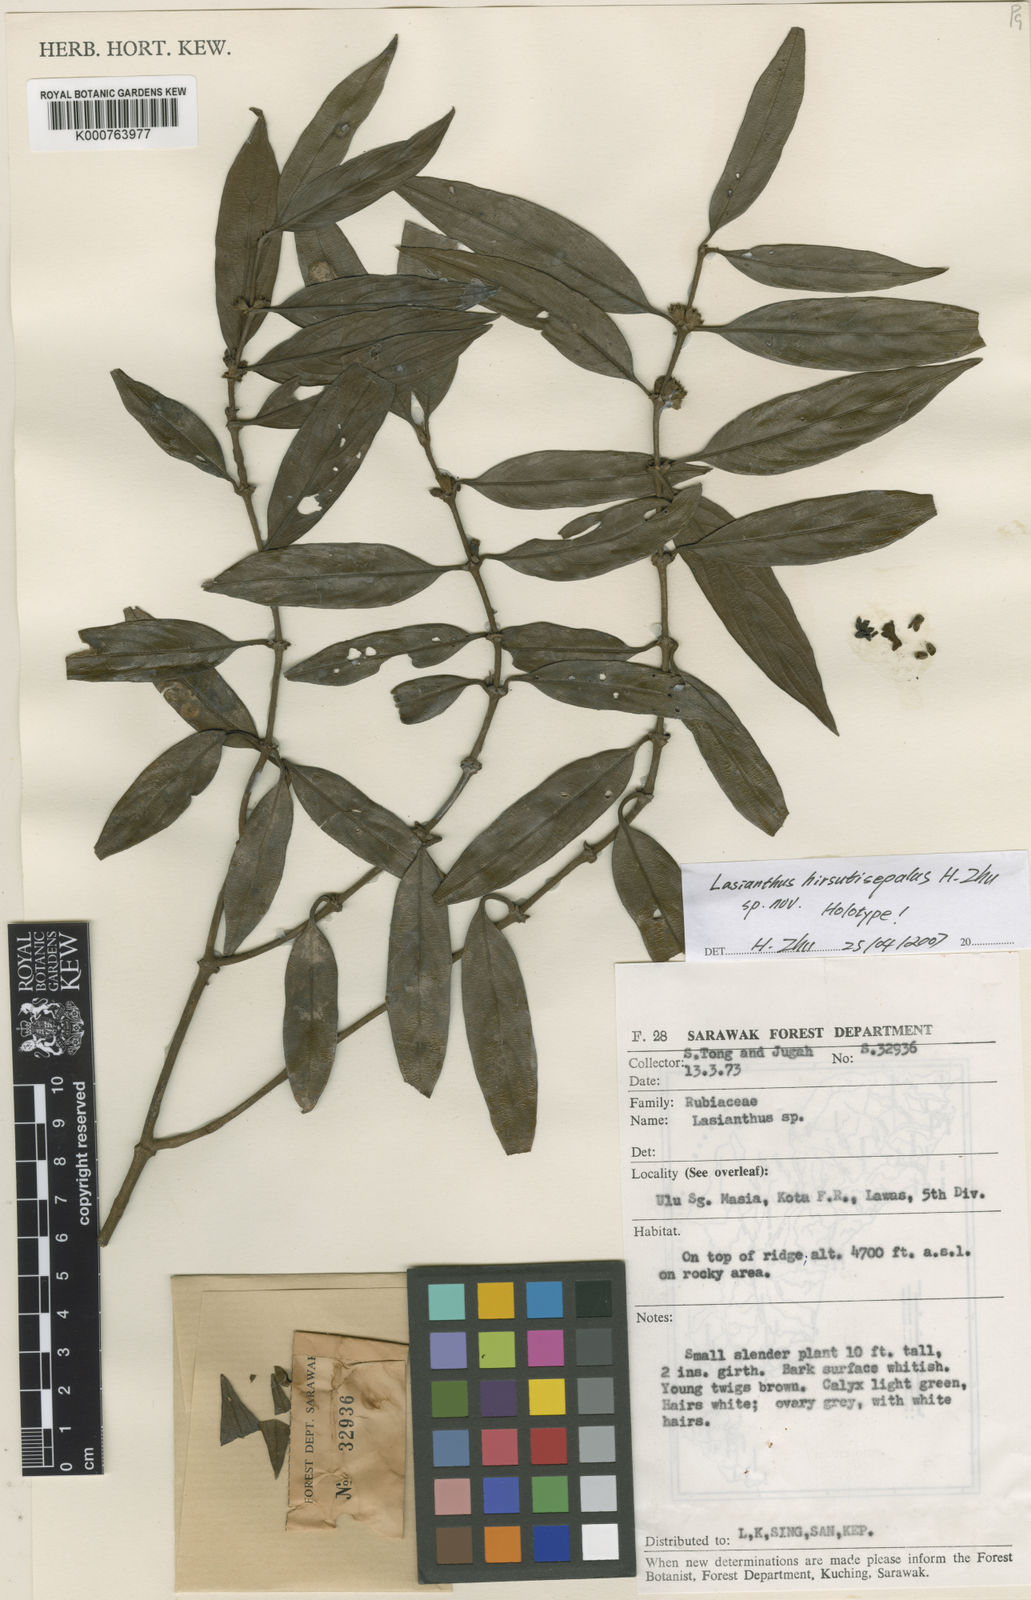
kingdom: Plantae
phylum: Tracheophyta
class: Magnoliopsida
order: Gentianales
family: Rubiaceae
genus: Lasianthus
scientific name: Lasianthus hirsutisepalus
